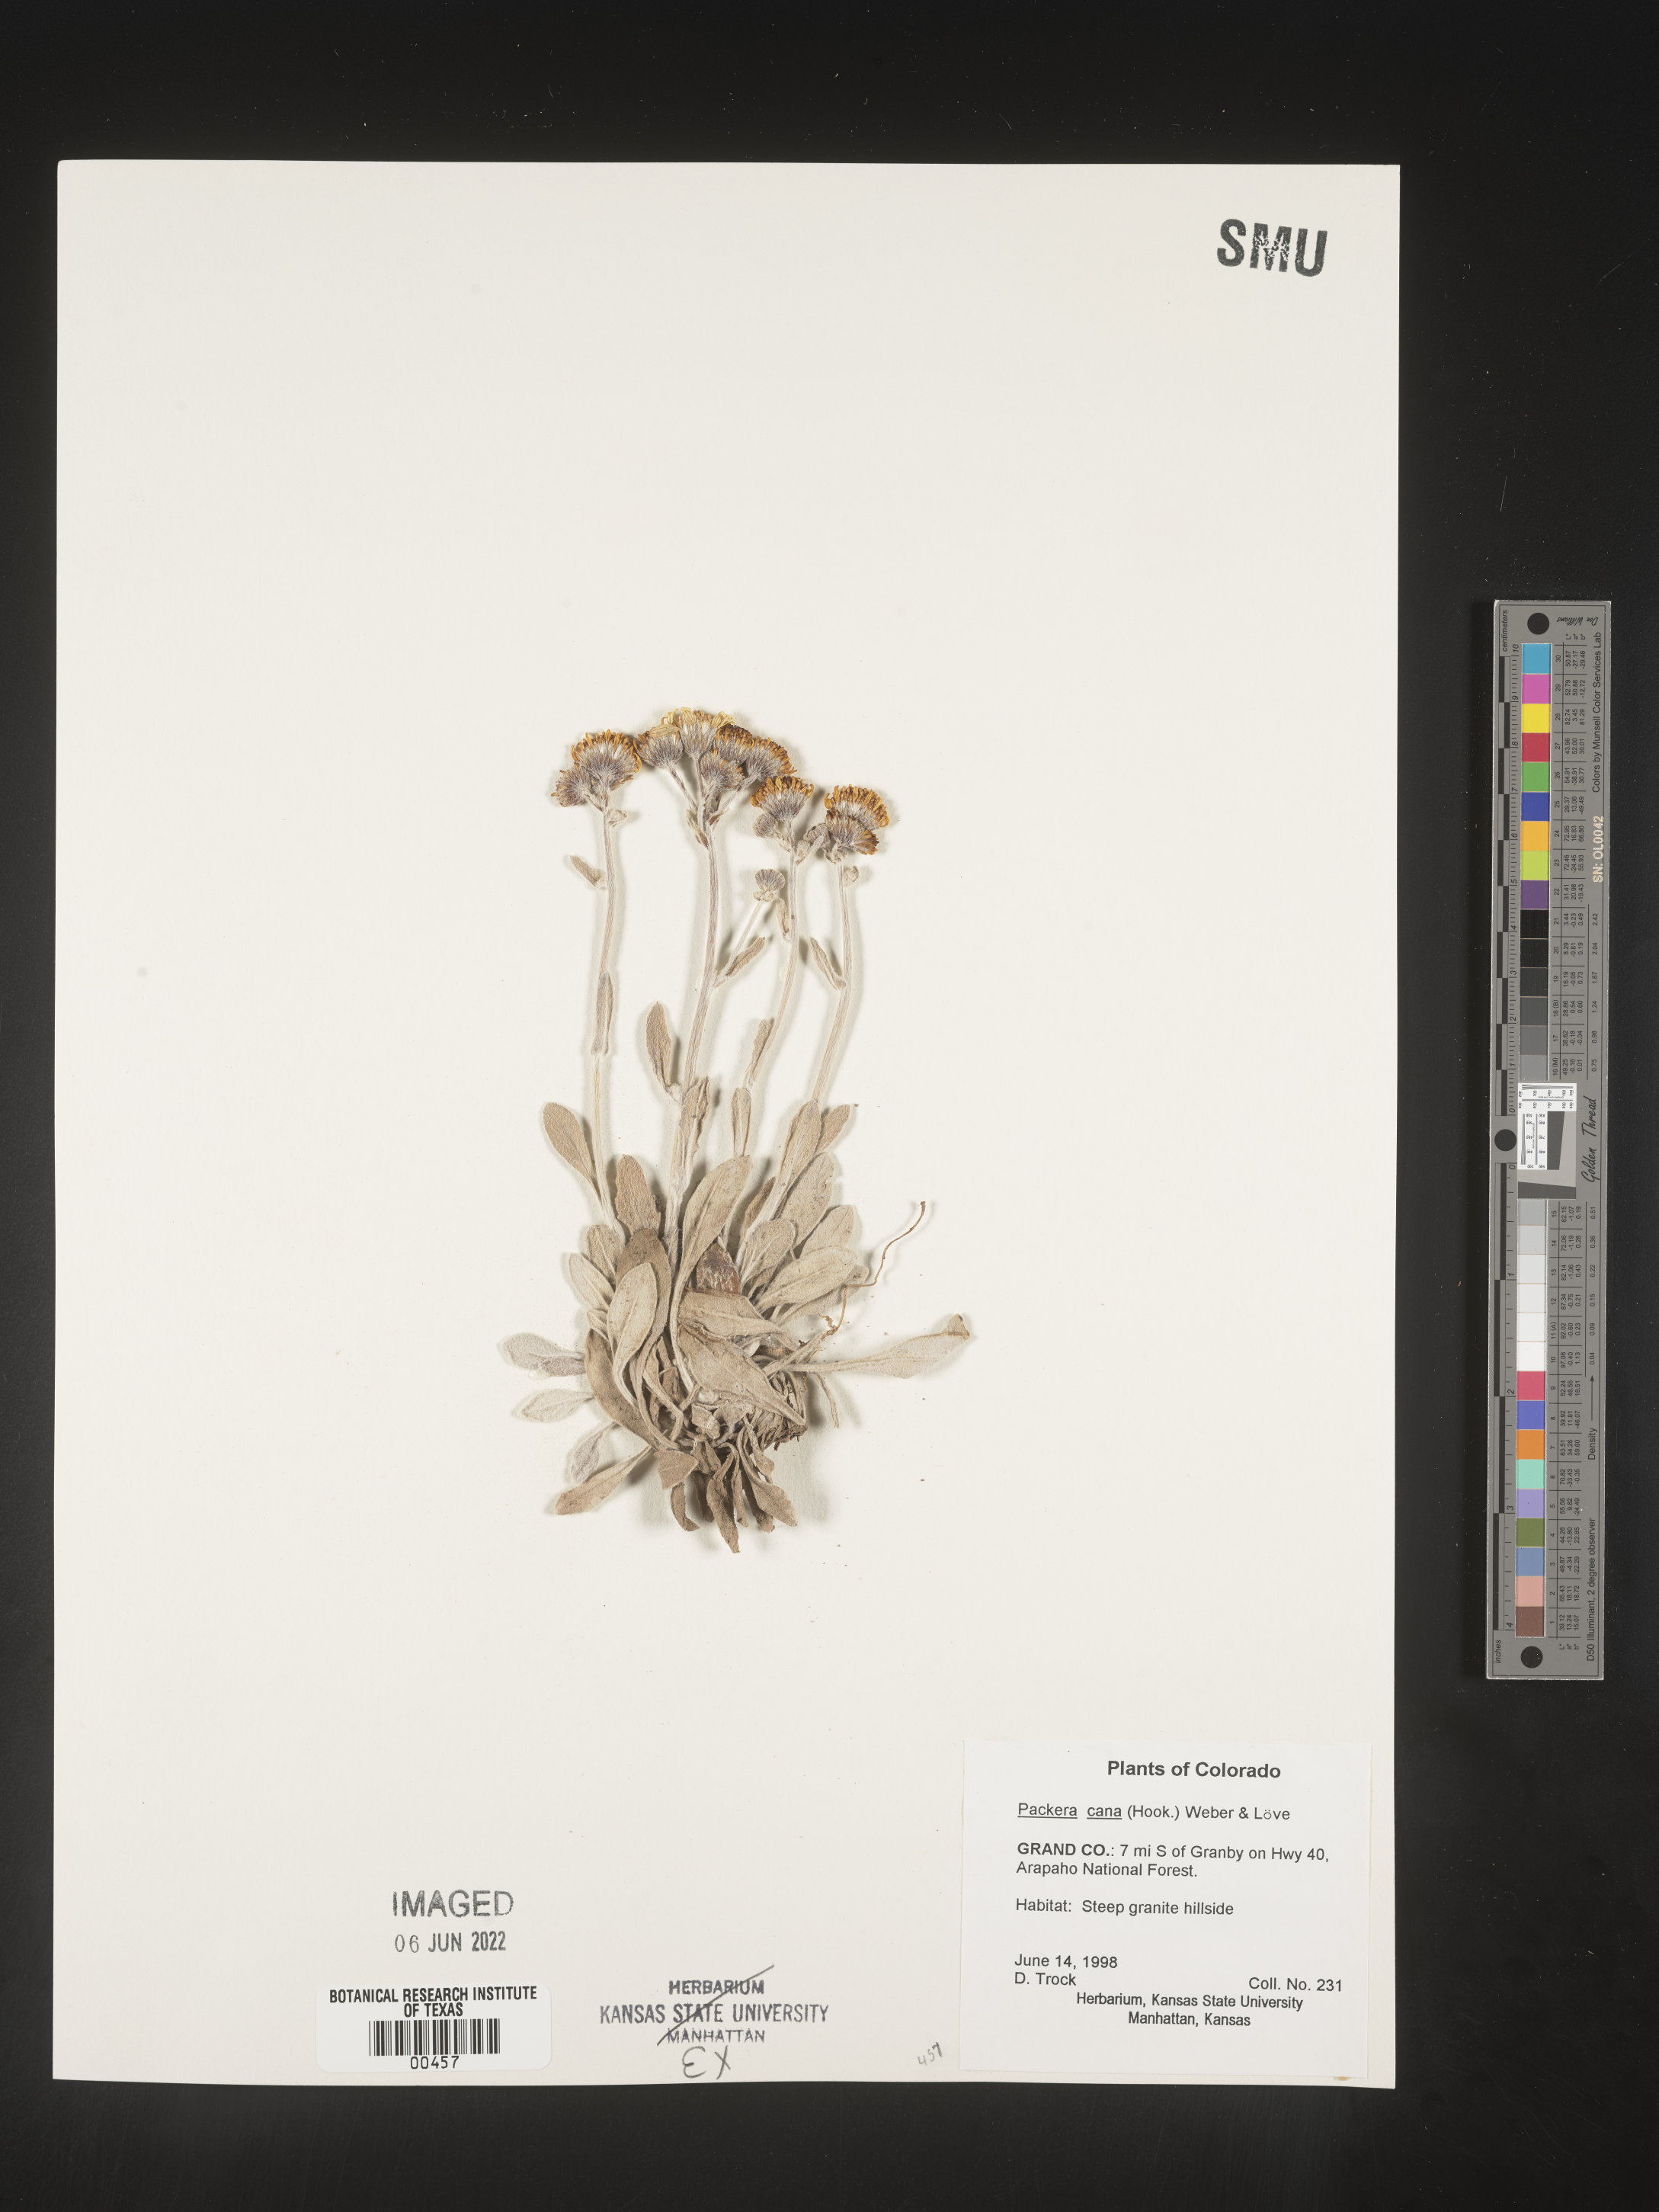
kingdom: Plantae
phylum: Tracheophyta
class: Magnoliopsida
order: Asterales
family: Asteraceae
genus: Packera
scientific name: Packera cana
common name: Woolly groundsel
